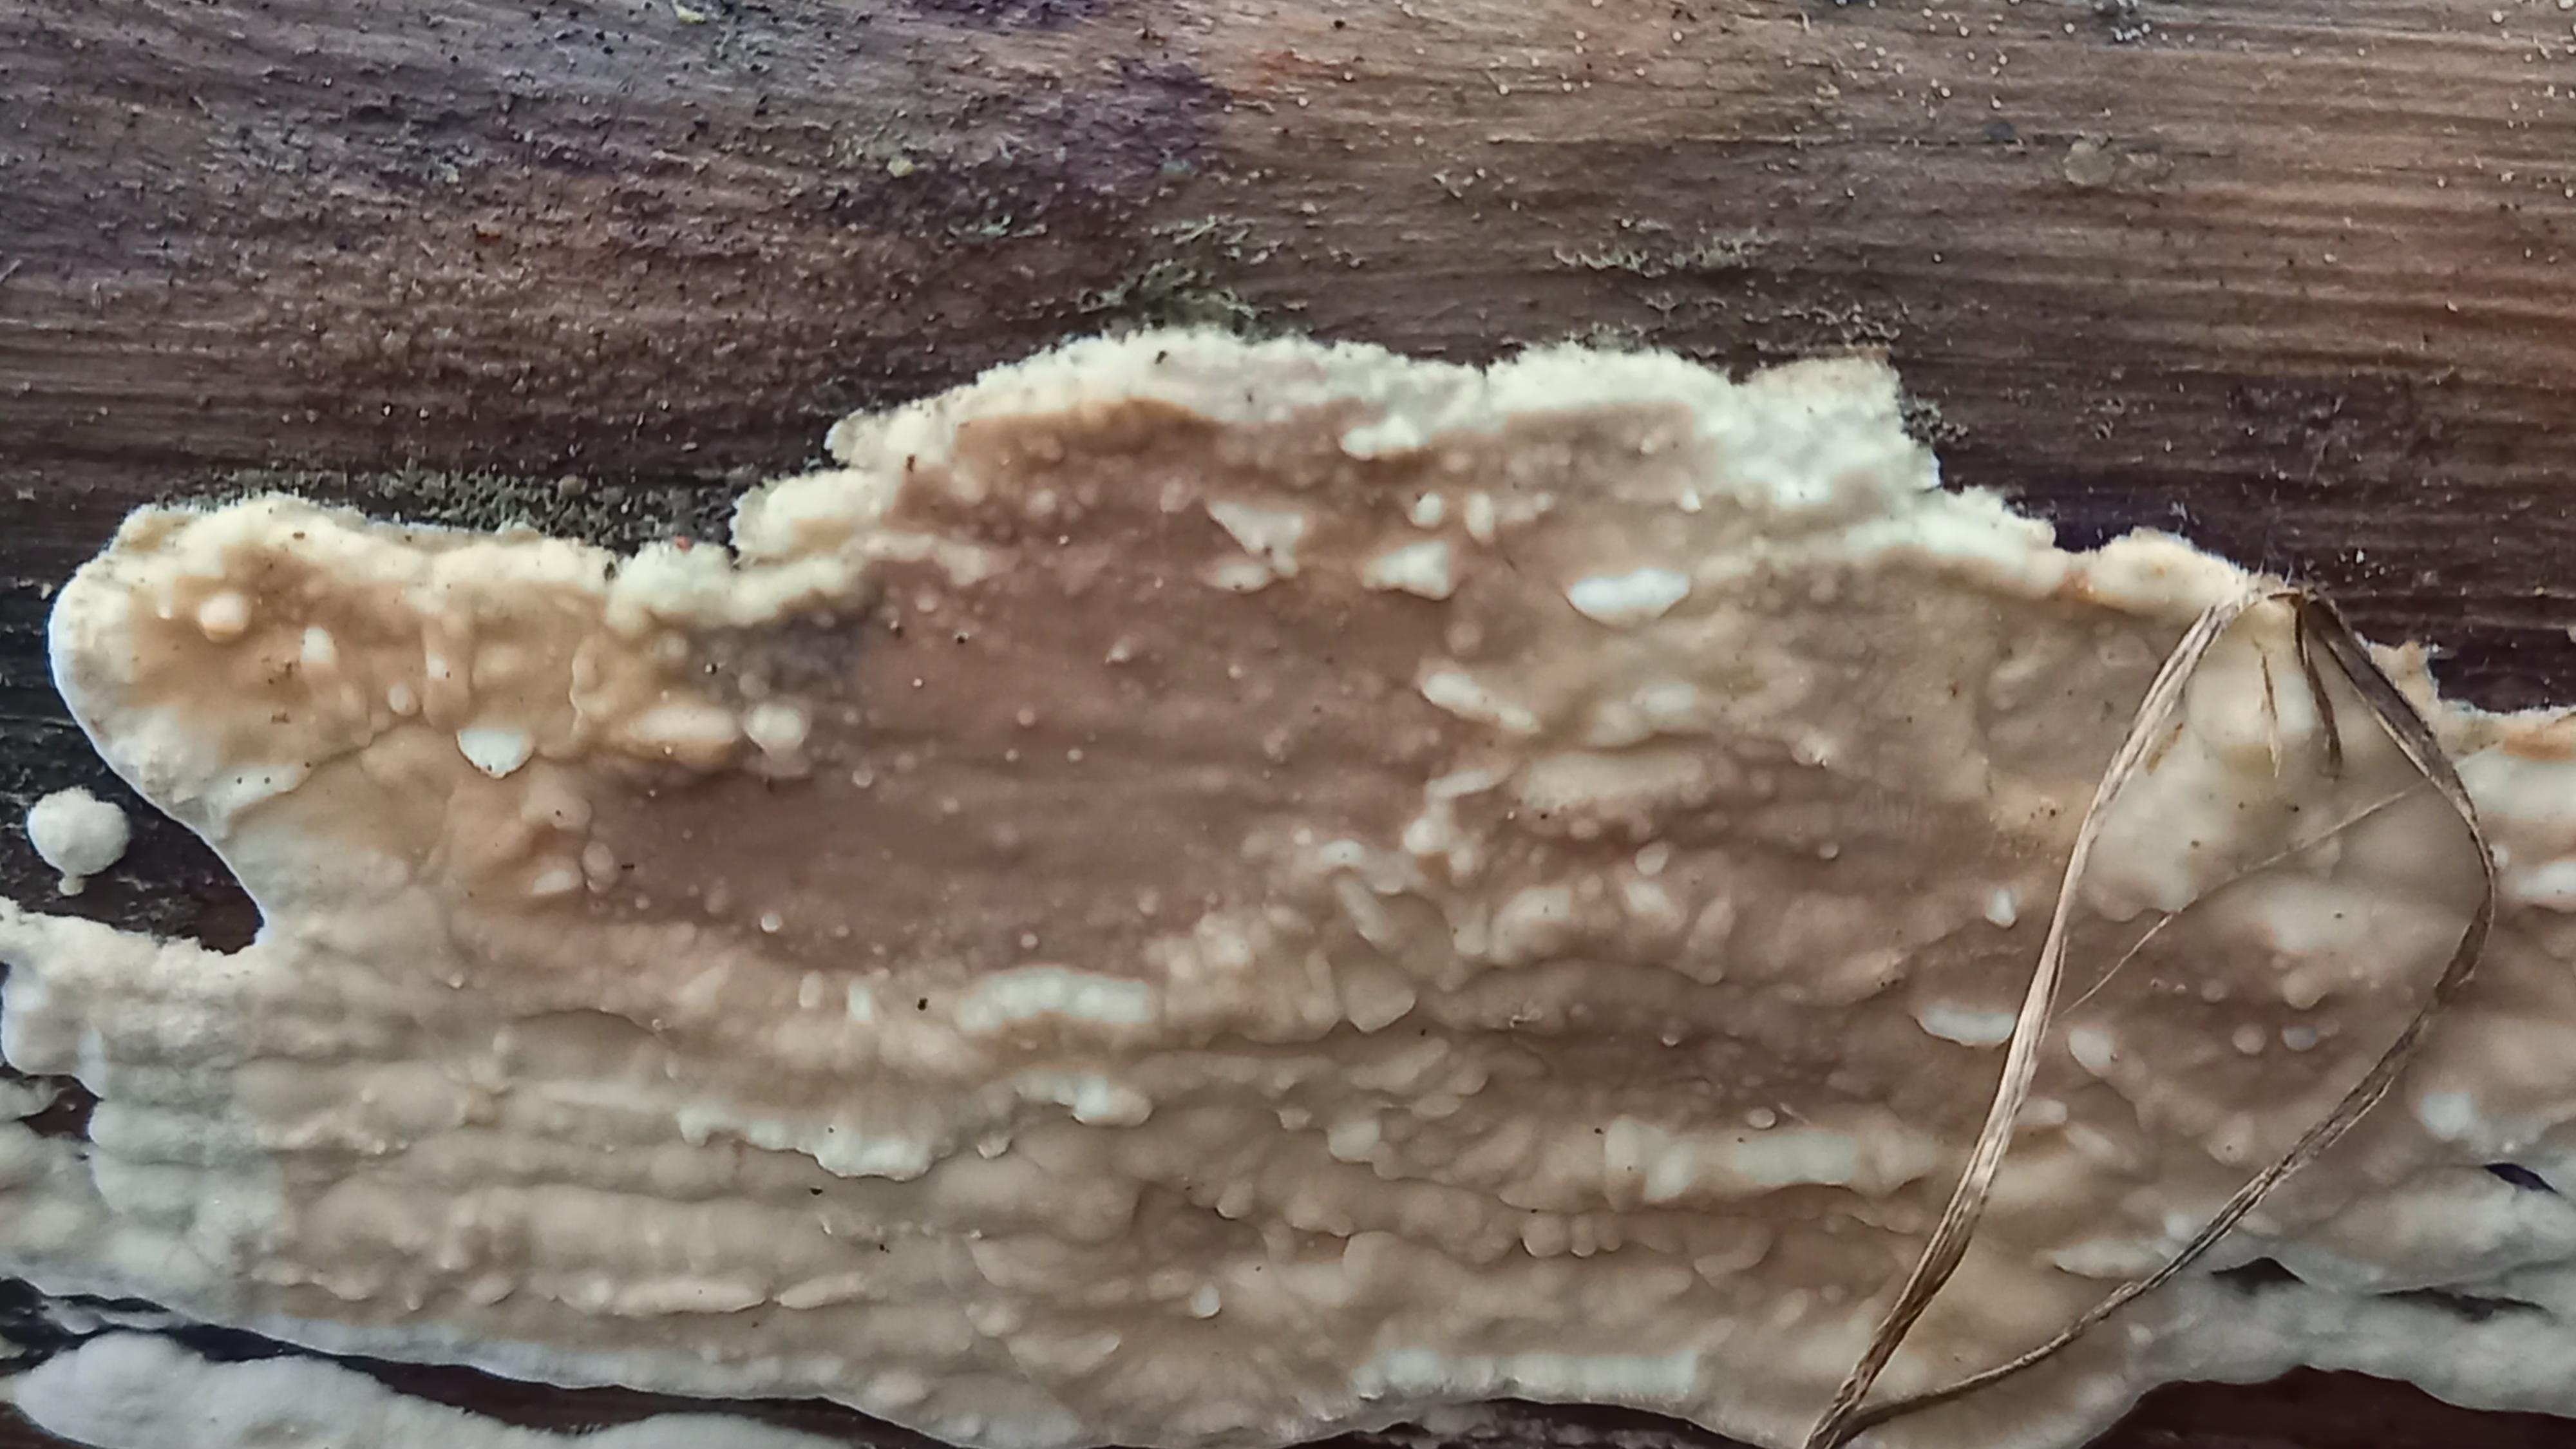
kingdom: Fungi
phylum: Basidiomycota
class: Agaricomycetes
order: Polyporales
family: Dacryobolaceae
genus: Dacryobolus
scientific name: Dacryobolus karstenii
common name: glat vulkanskorpe
